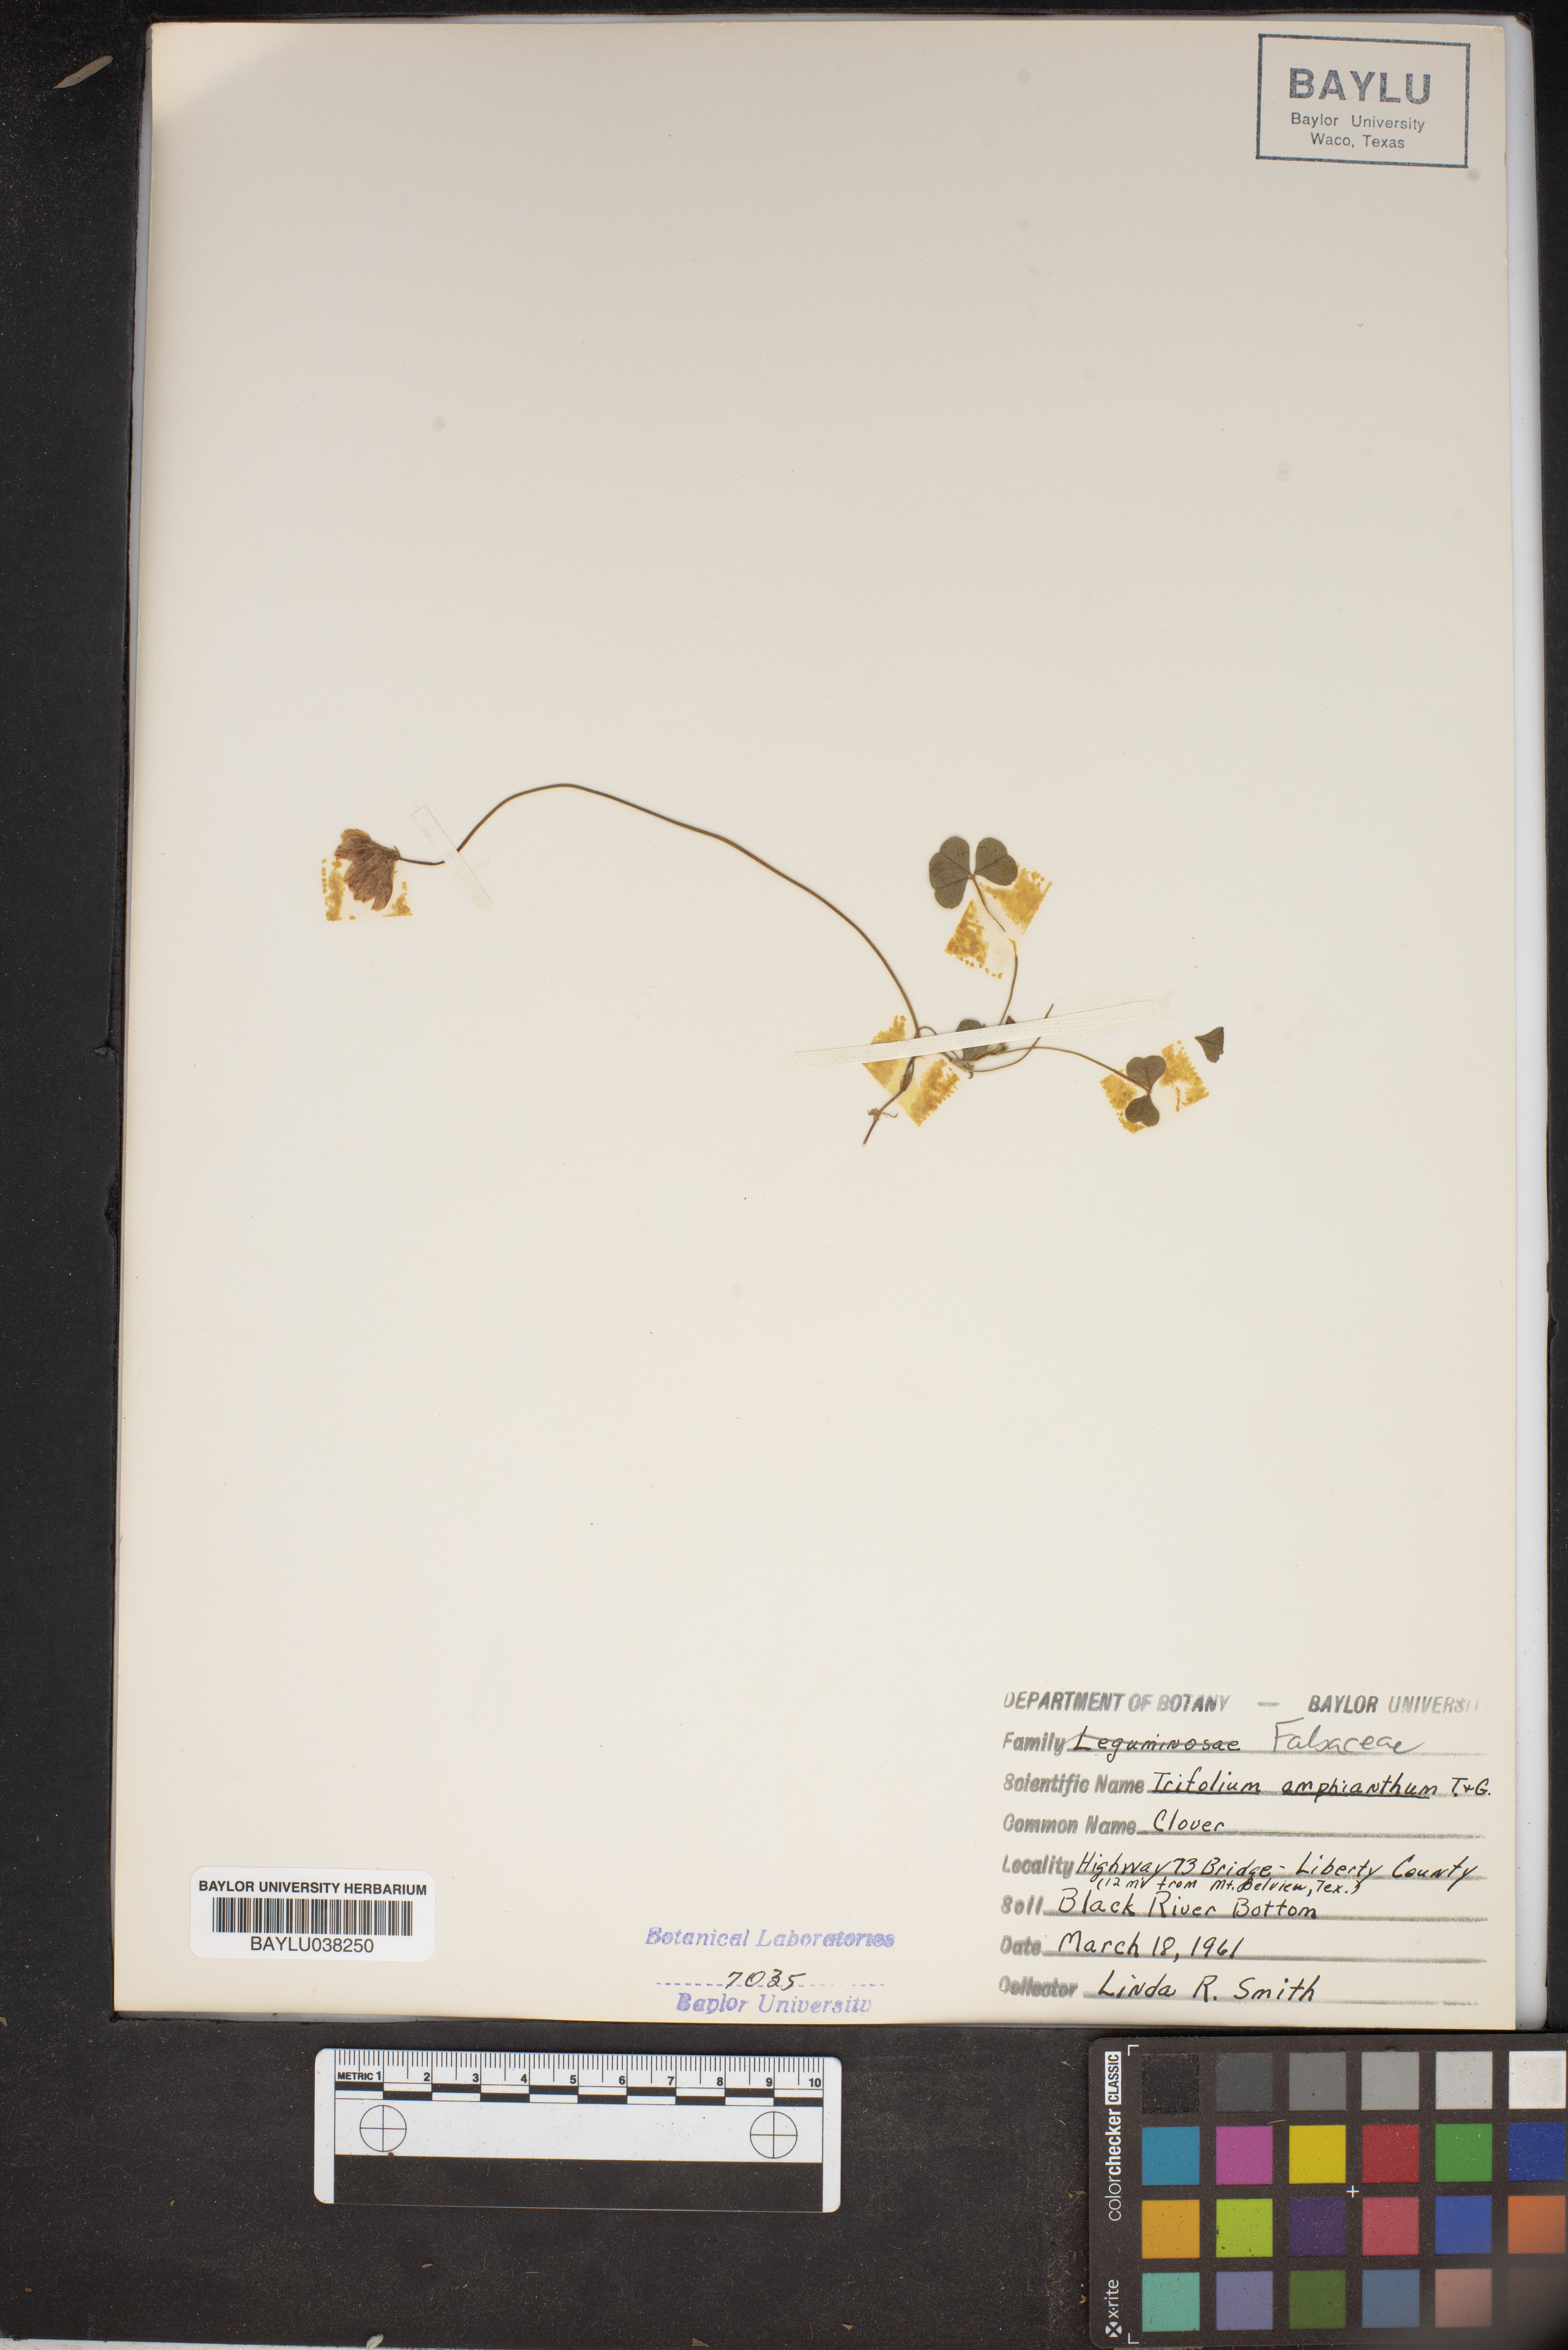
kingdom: Plantae
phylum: Tracheophyta
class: Magnoliopsida
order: Fabales
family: Fabaceae
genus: Trifolium
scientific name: Trifolium amphianthum
